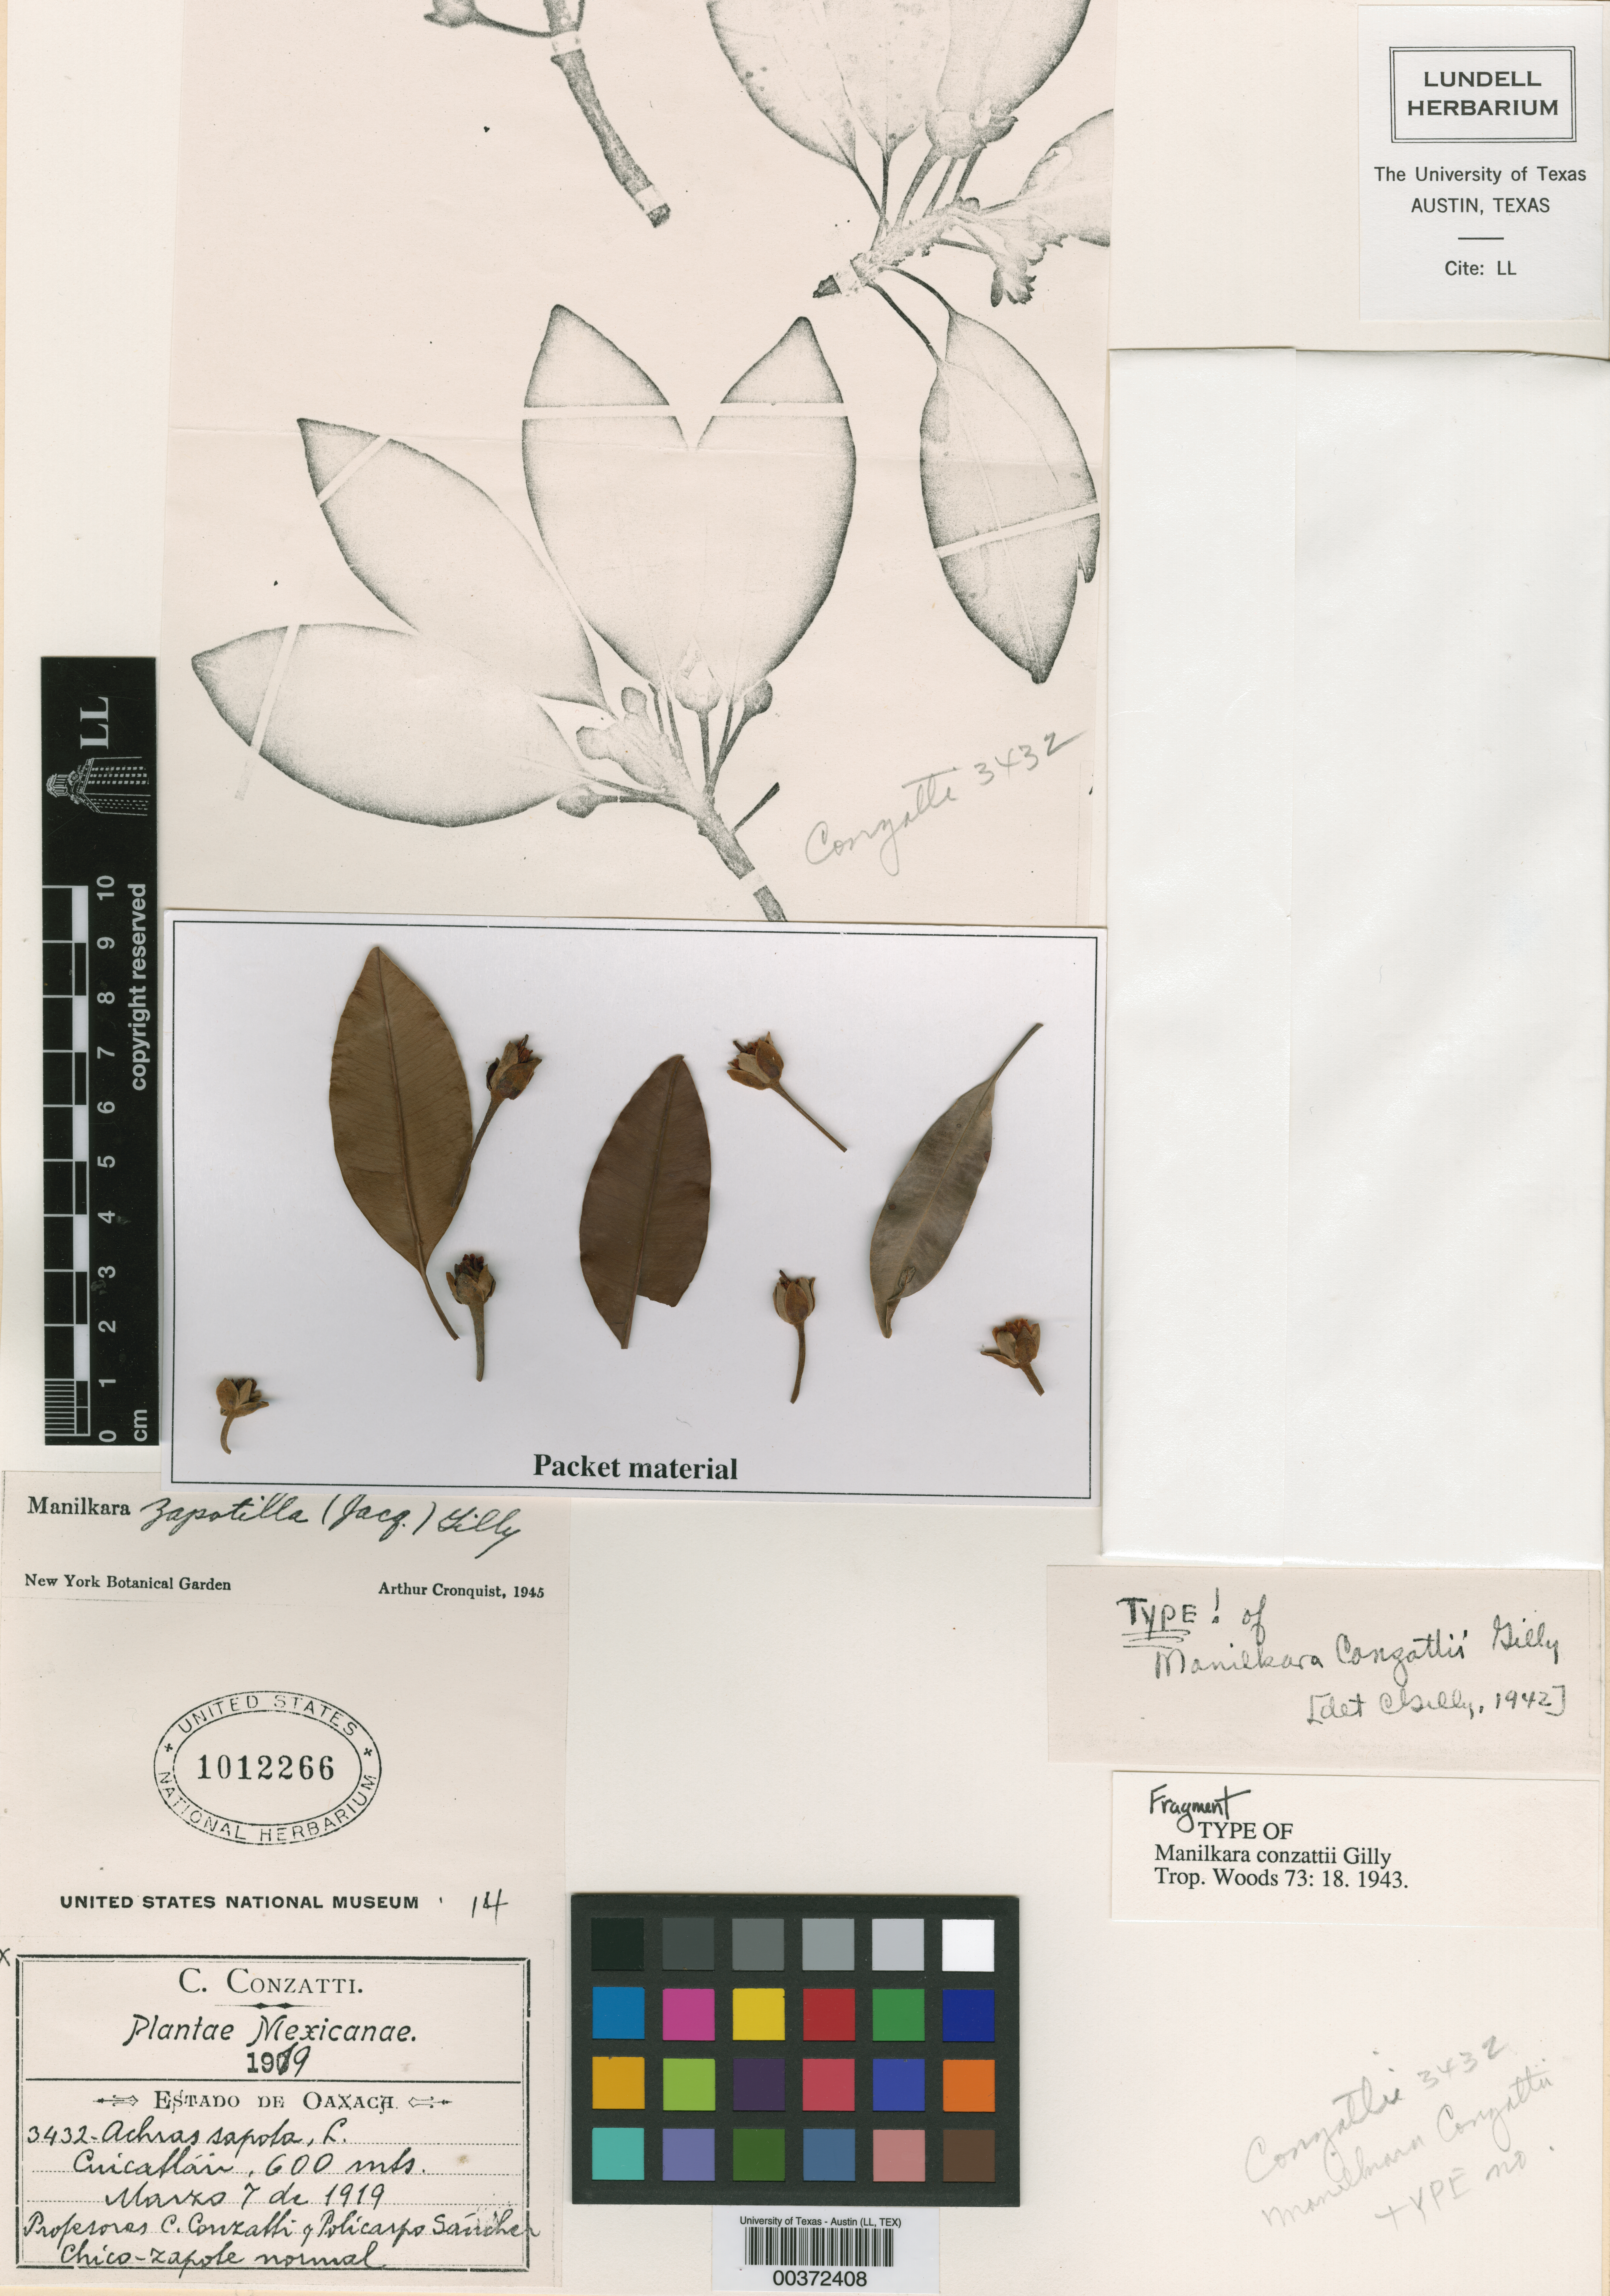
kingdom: Plantae
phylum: Tracheophyta
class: Magnoliopsida
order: Ericales
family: Sapotaceae
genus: Manilkara
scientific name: Manilkara zapota
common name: Sapodilla
